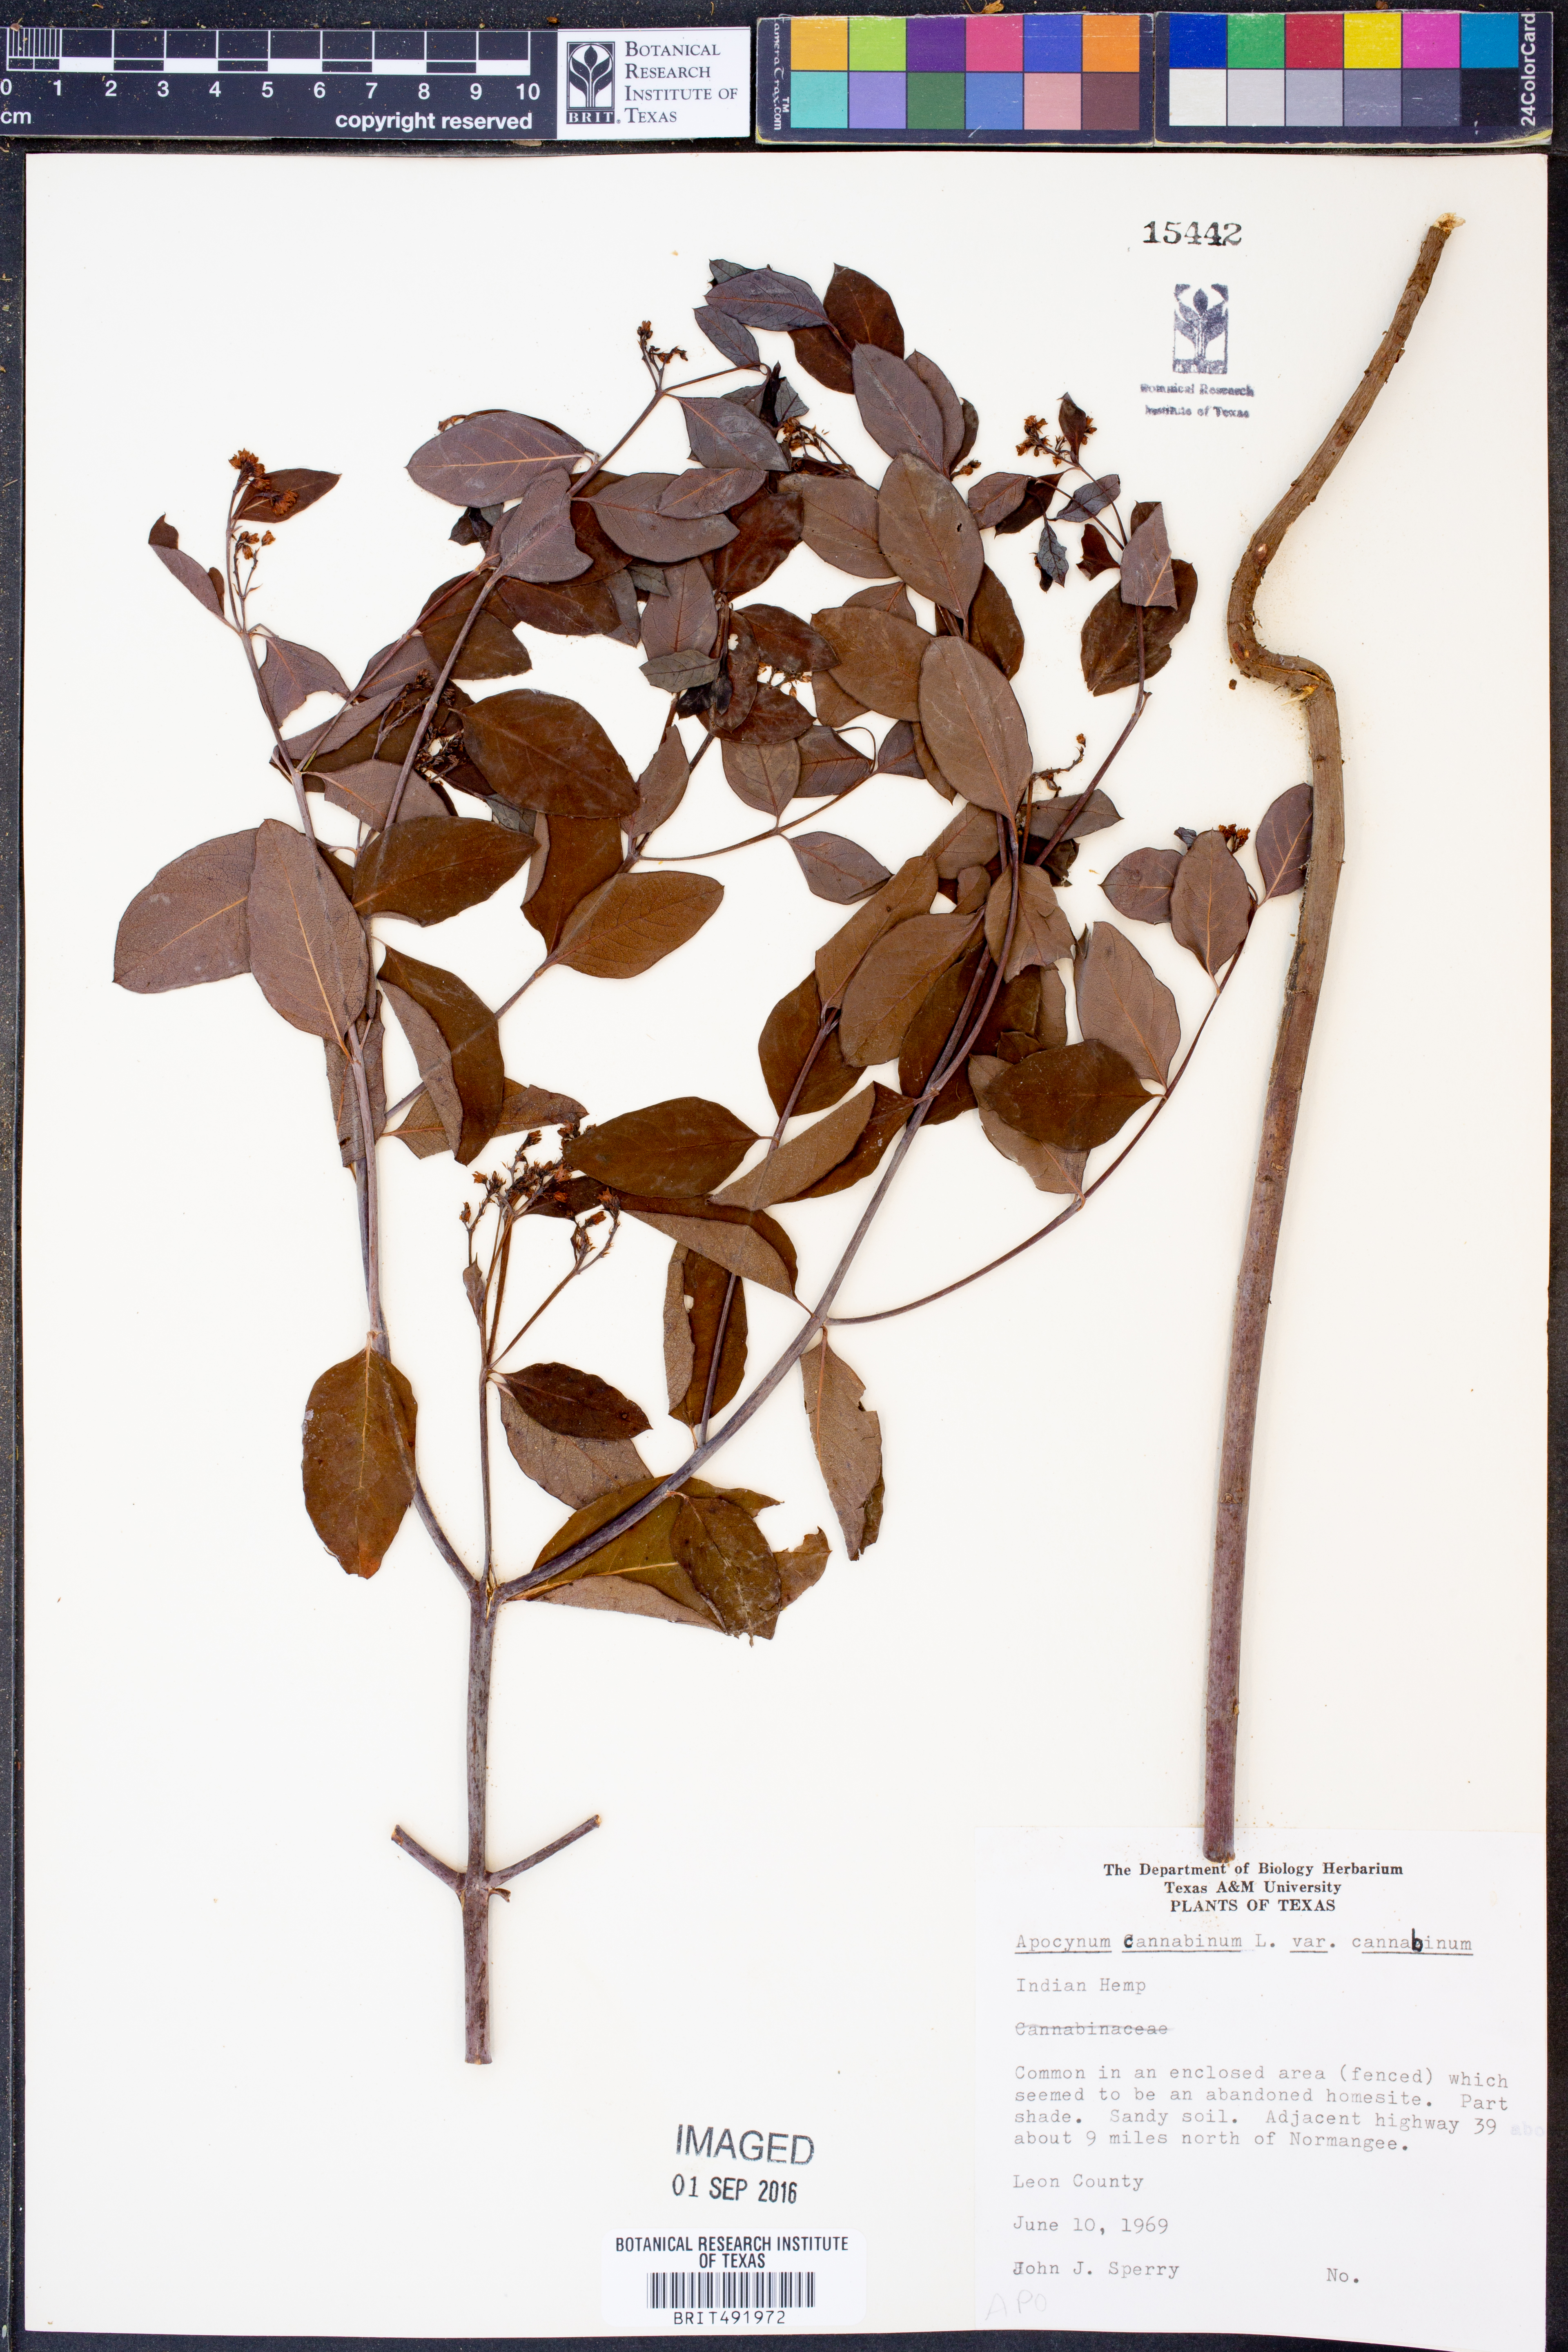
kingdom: Plantae
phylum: Tracheophyta
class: Magnoliopsida
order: Gentianales
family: Apocynaceae
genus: Apocynum
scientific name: Apocynum cannabinum
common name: Hemp dogbane
